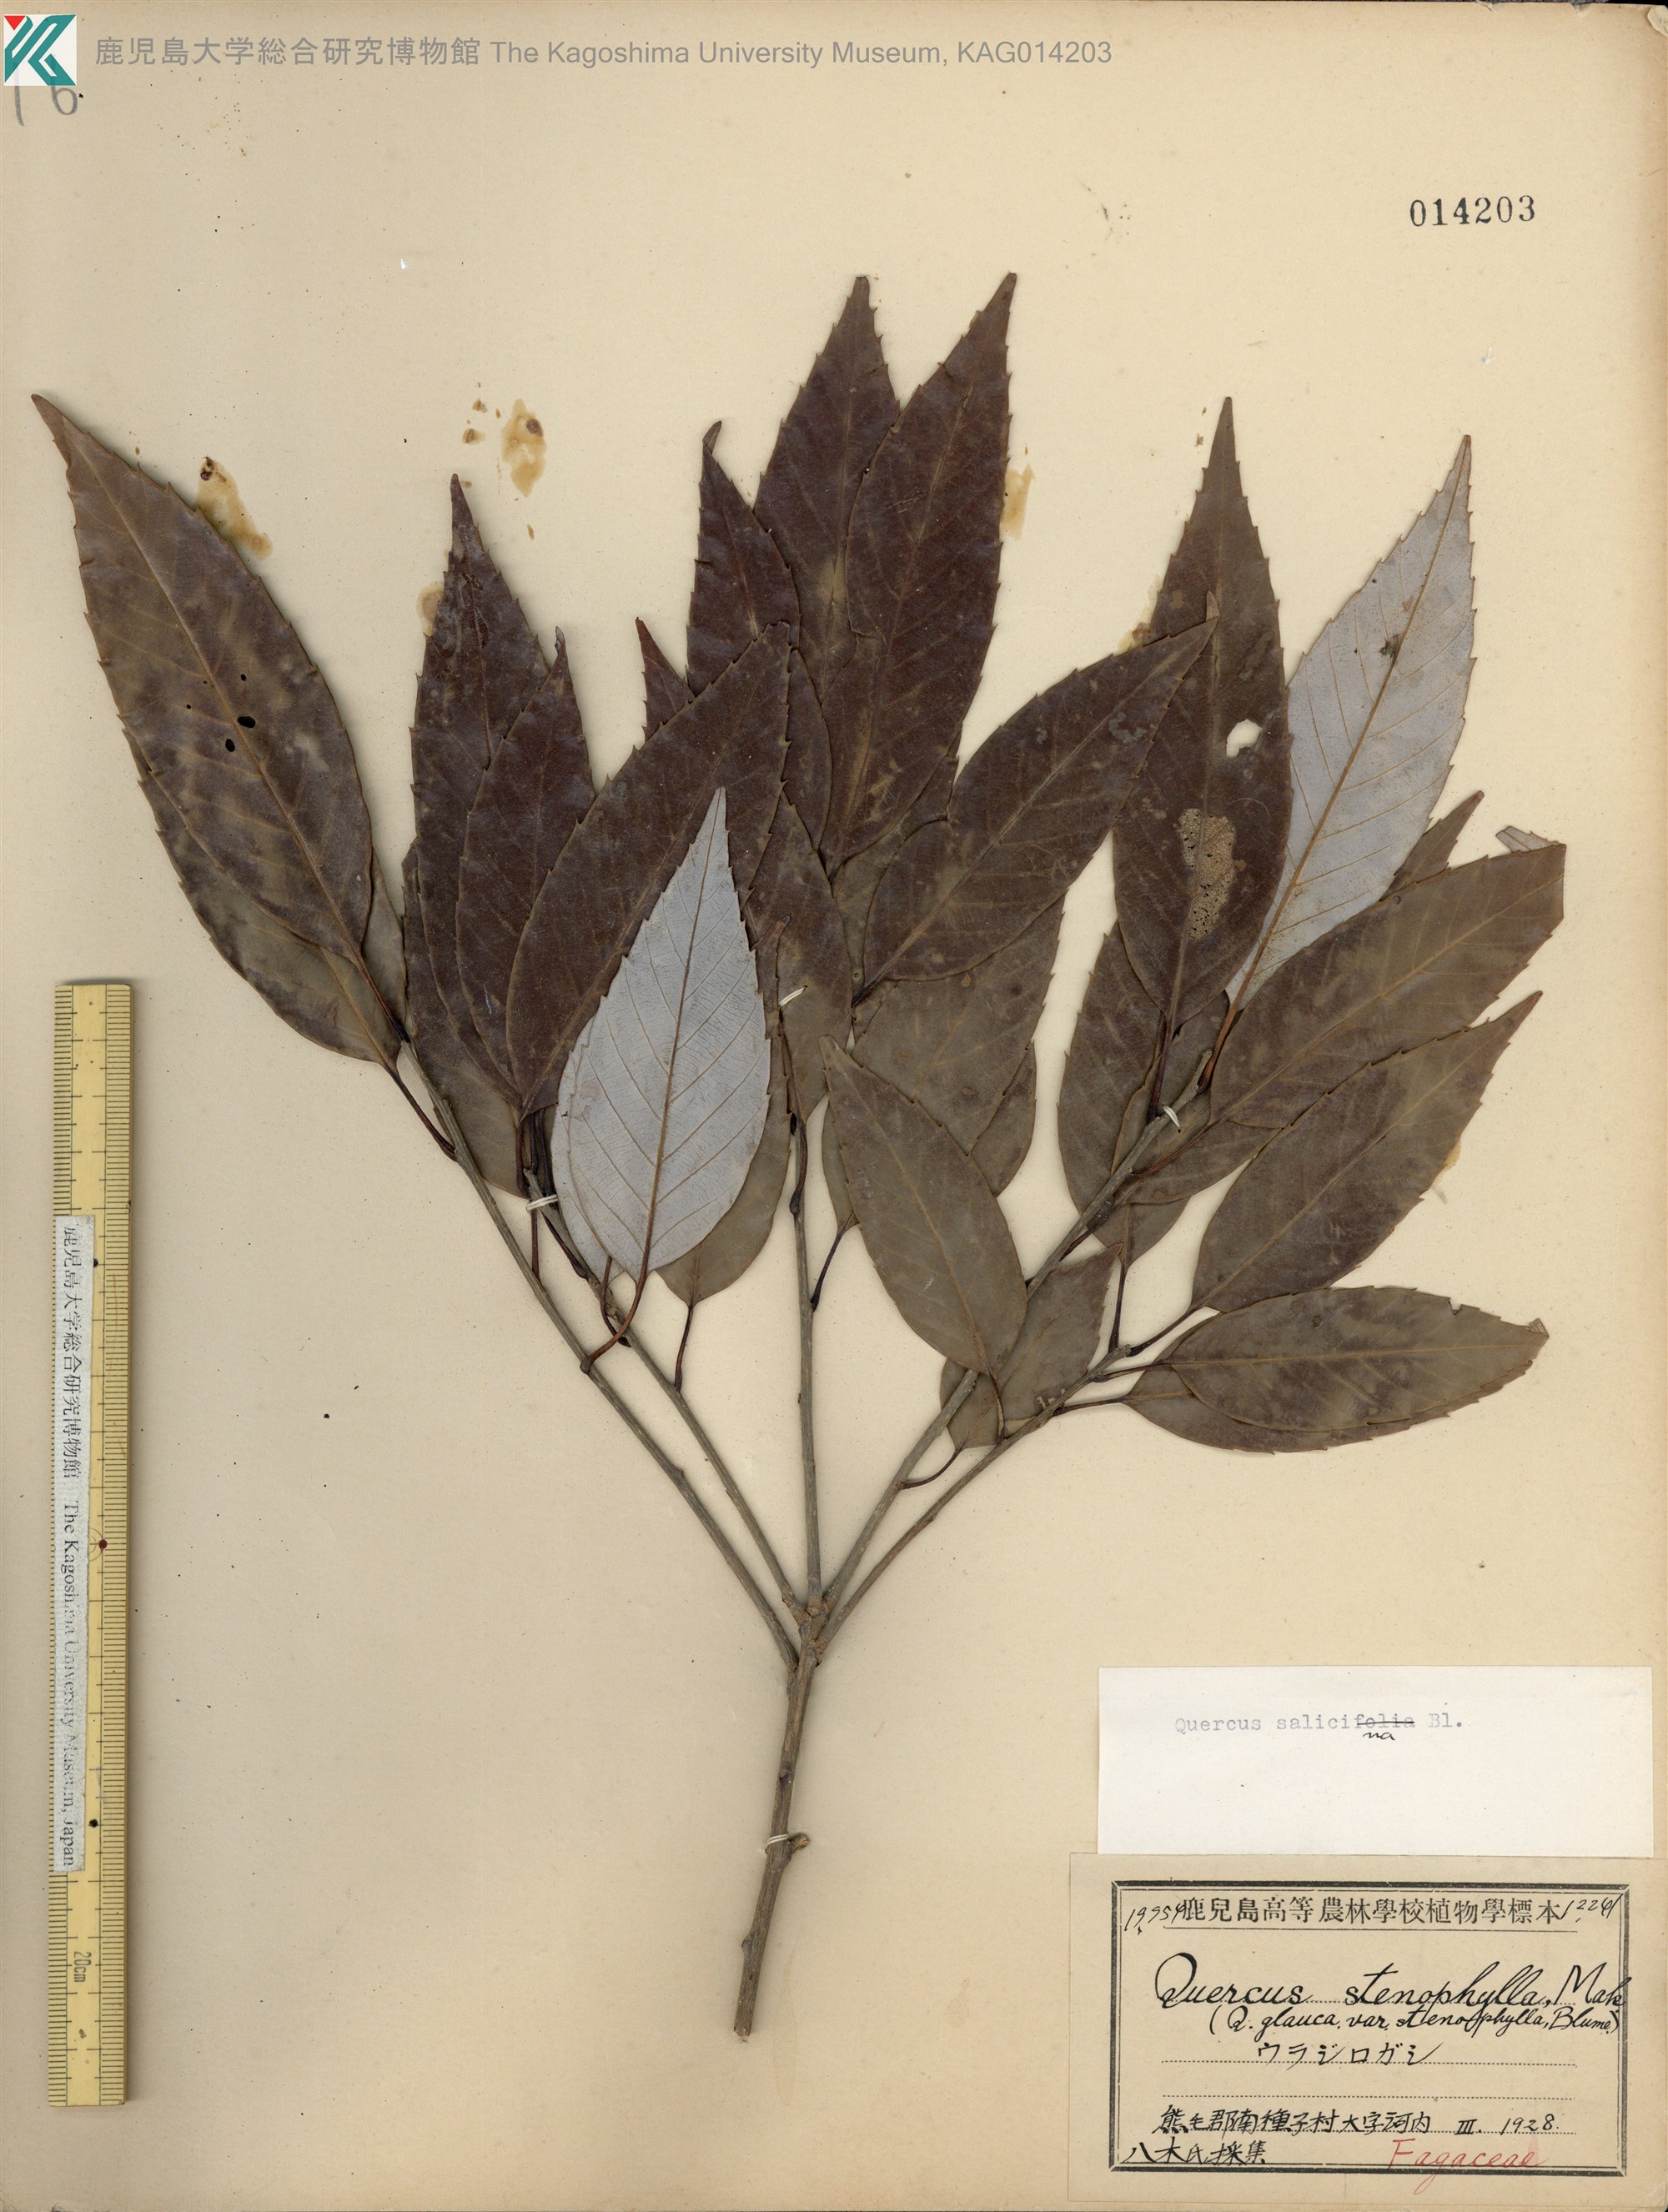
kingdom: Plantae
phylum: Tracheophyta
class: Magnoliopsida
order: Fagales
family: Fagaceae
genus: Quercus
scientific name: Quercus salicina
